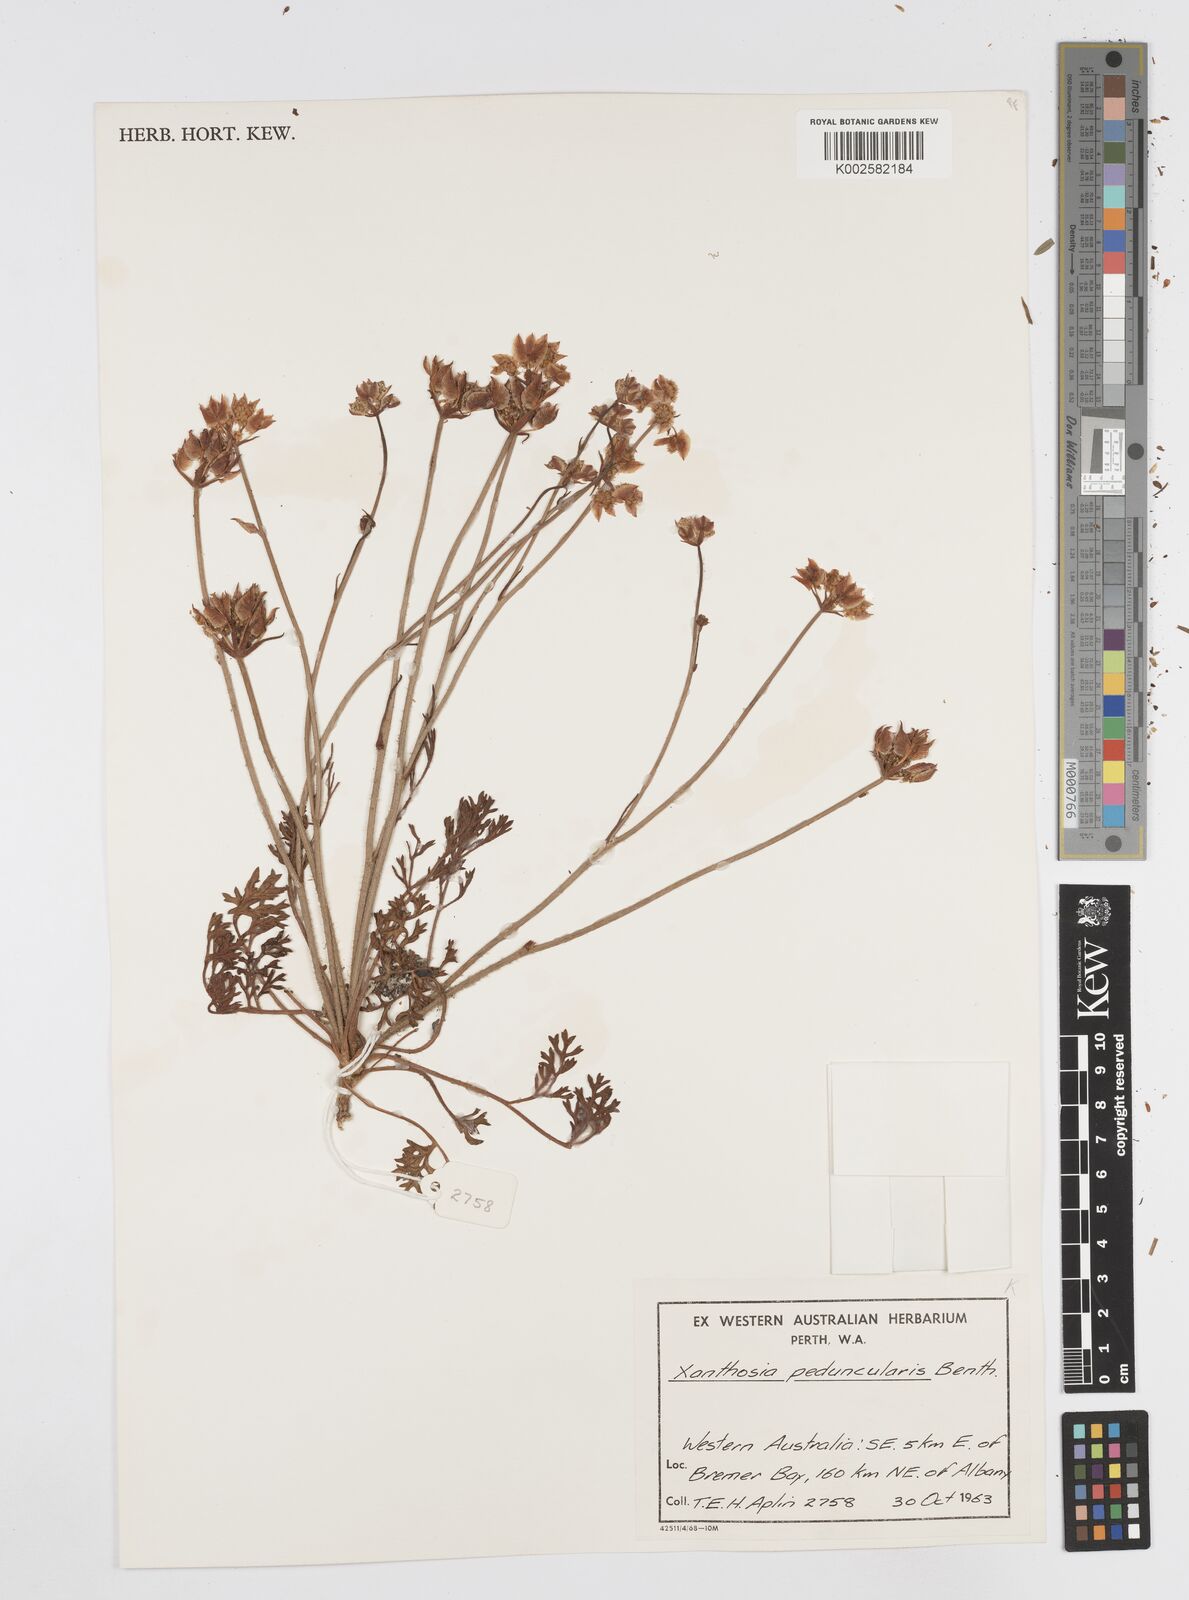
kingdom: Plantae
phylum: Tracheophyta
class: Magnoliopsida
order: Apiales
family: Apiaceae
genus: Xanthosia
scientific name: Xanthosia peduncularis
